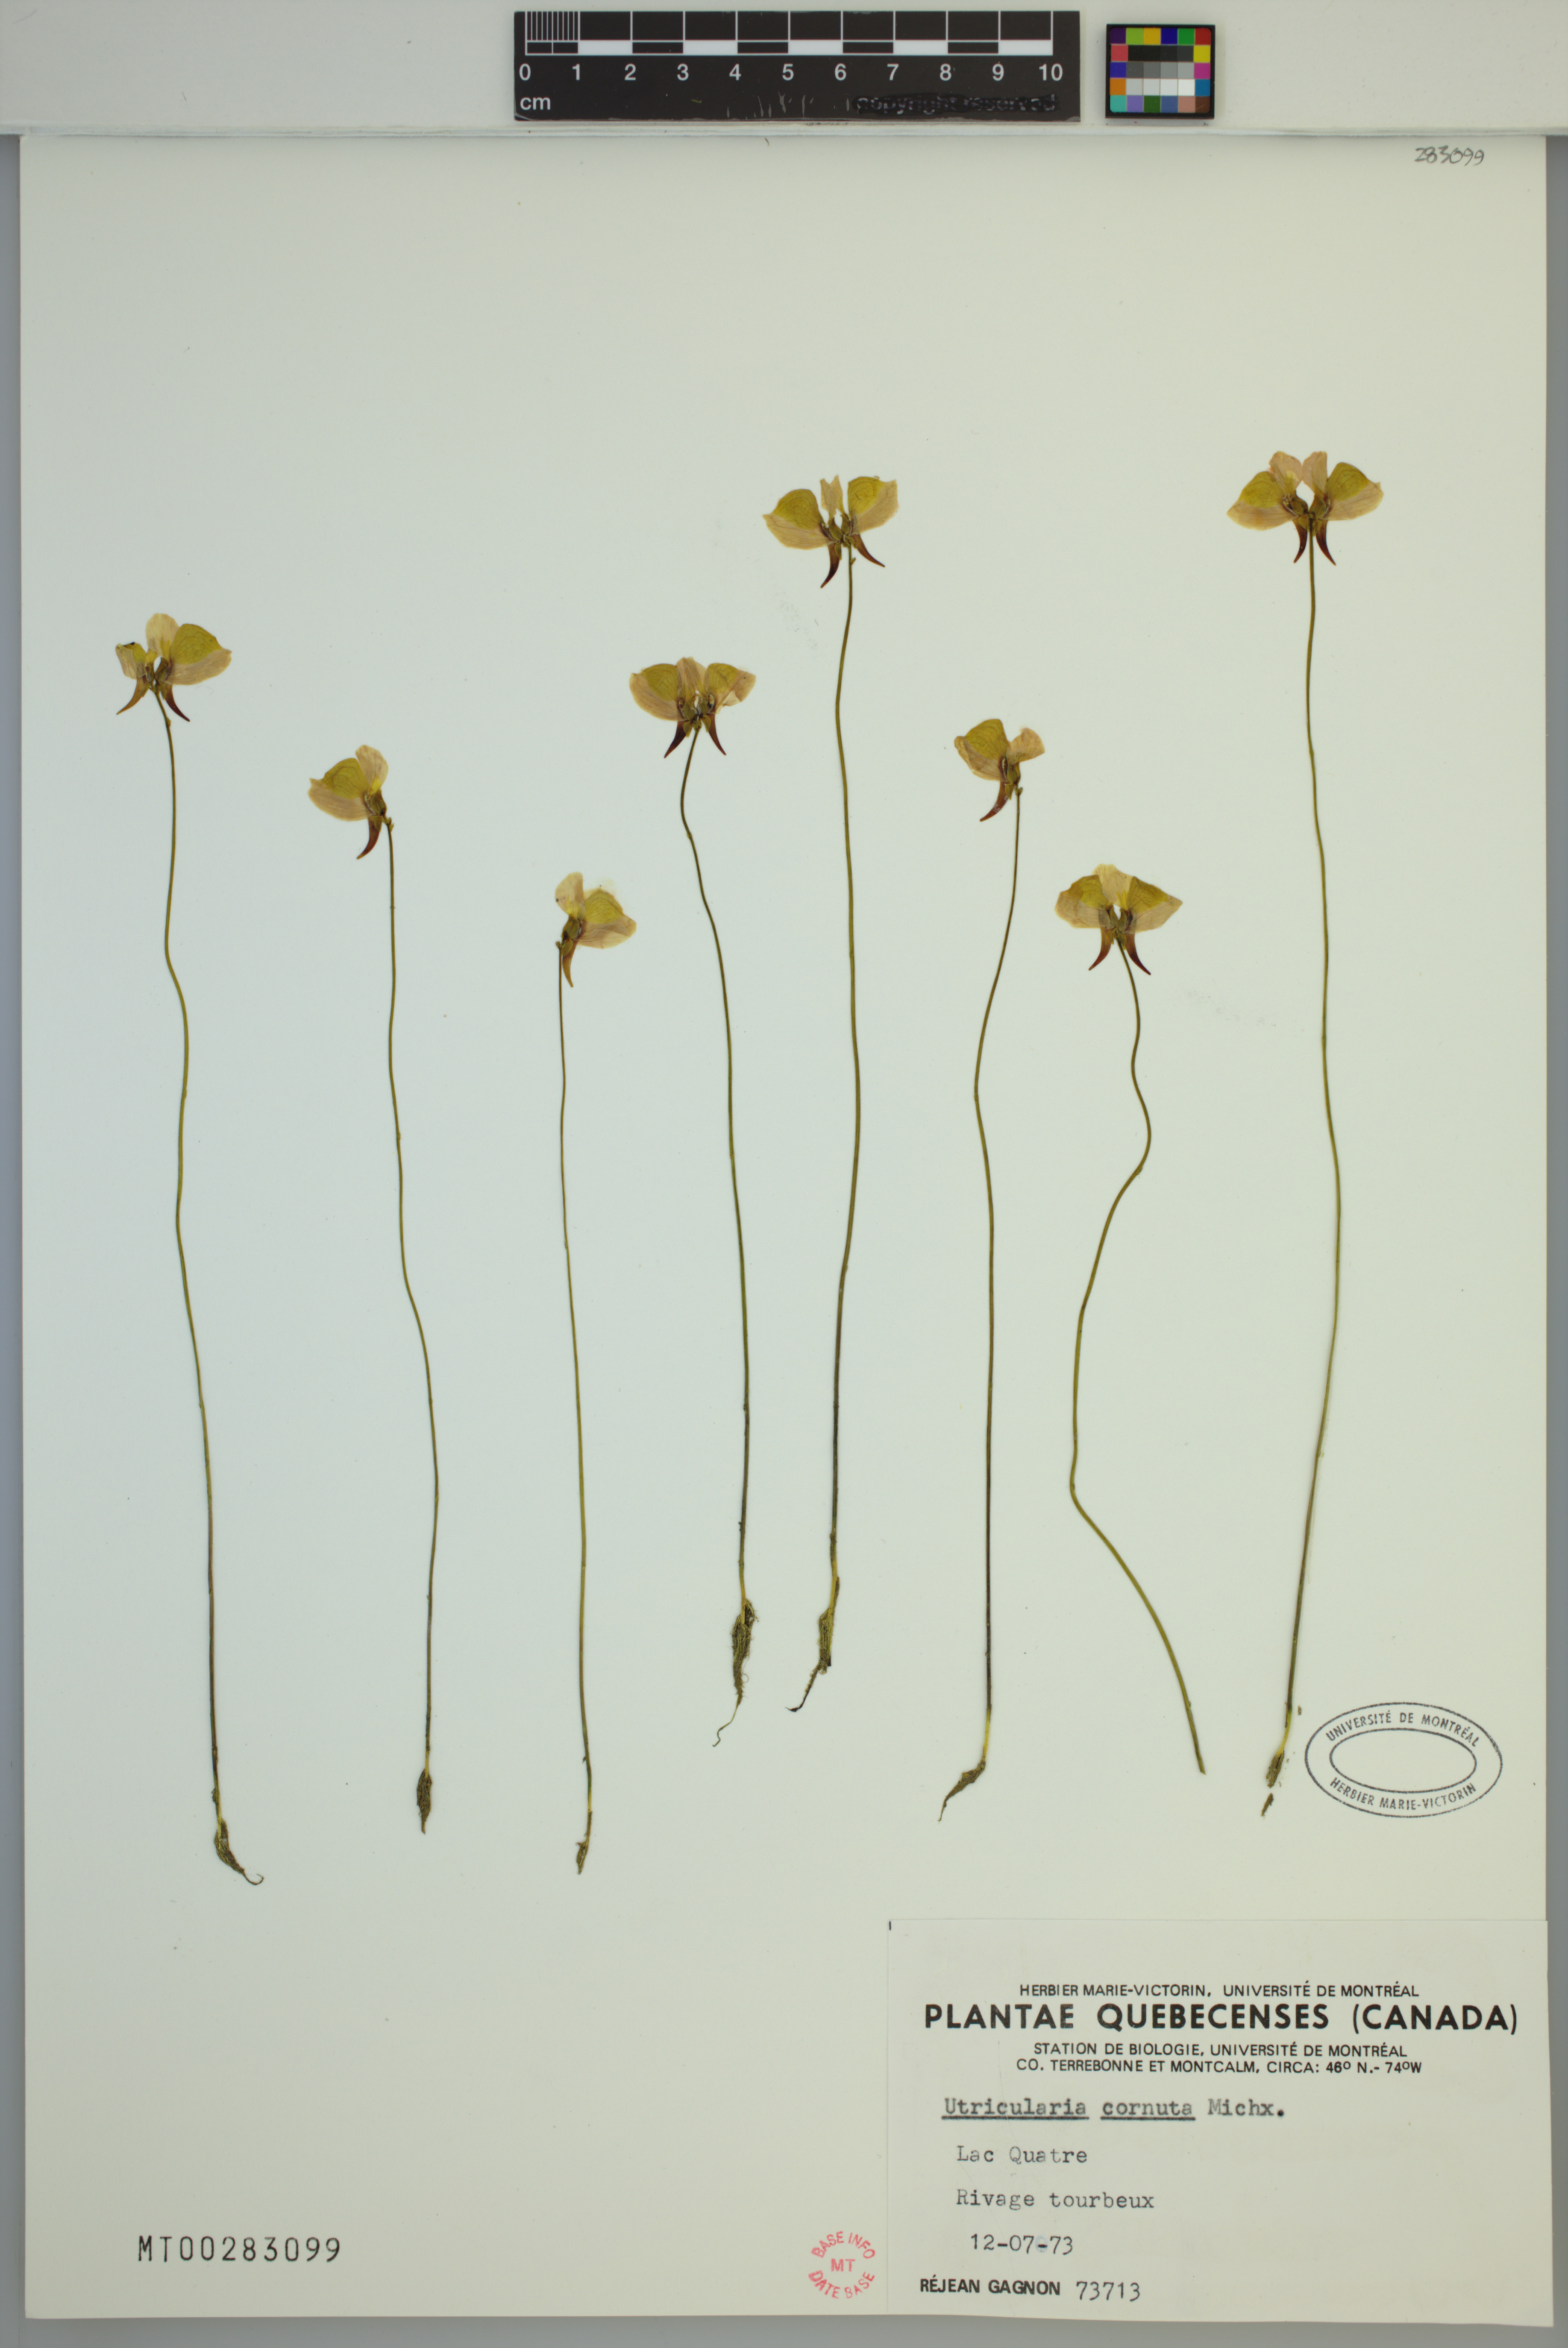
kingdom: Plantae
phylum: Tracheophyta
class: Magnoliopsida
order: Lamiales
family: Lentibulariaceae
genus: Utricularia
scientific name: Utricularia cornuta
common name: Horned bladderwort
